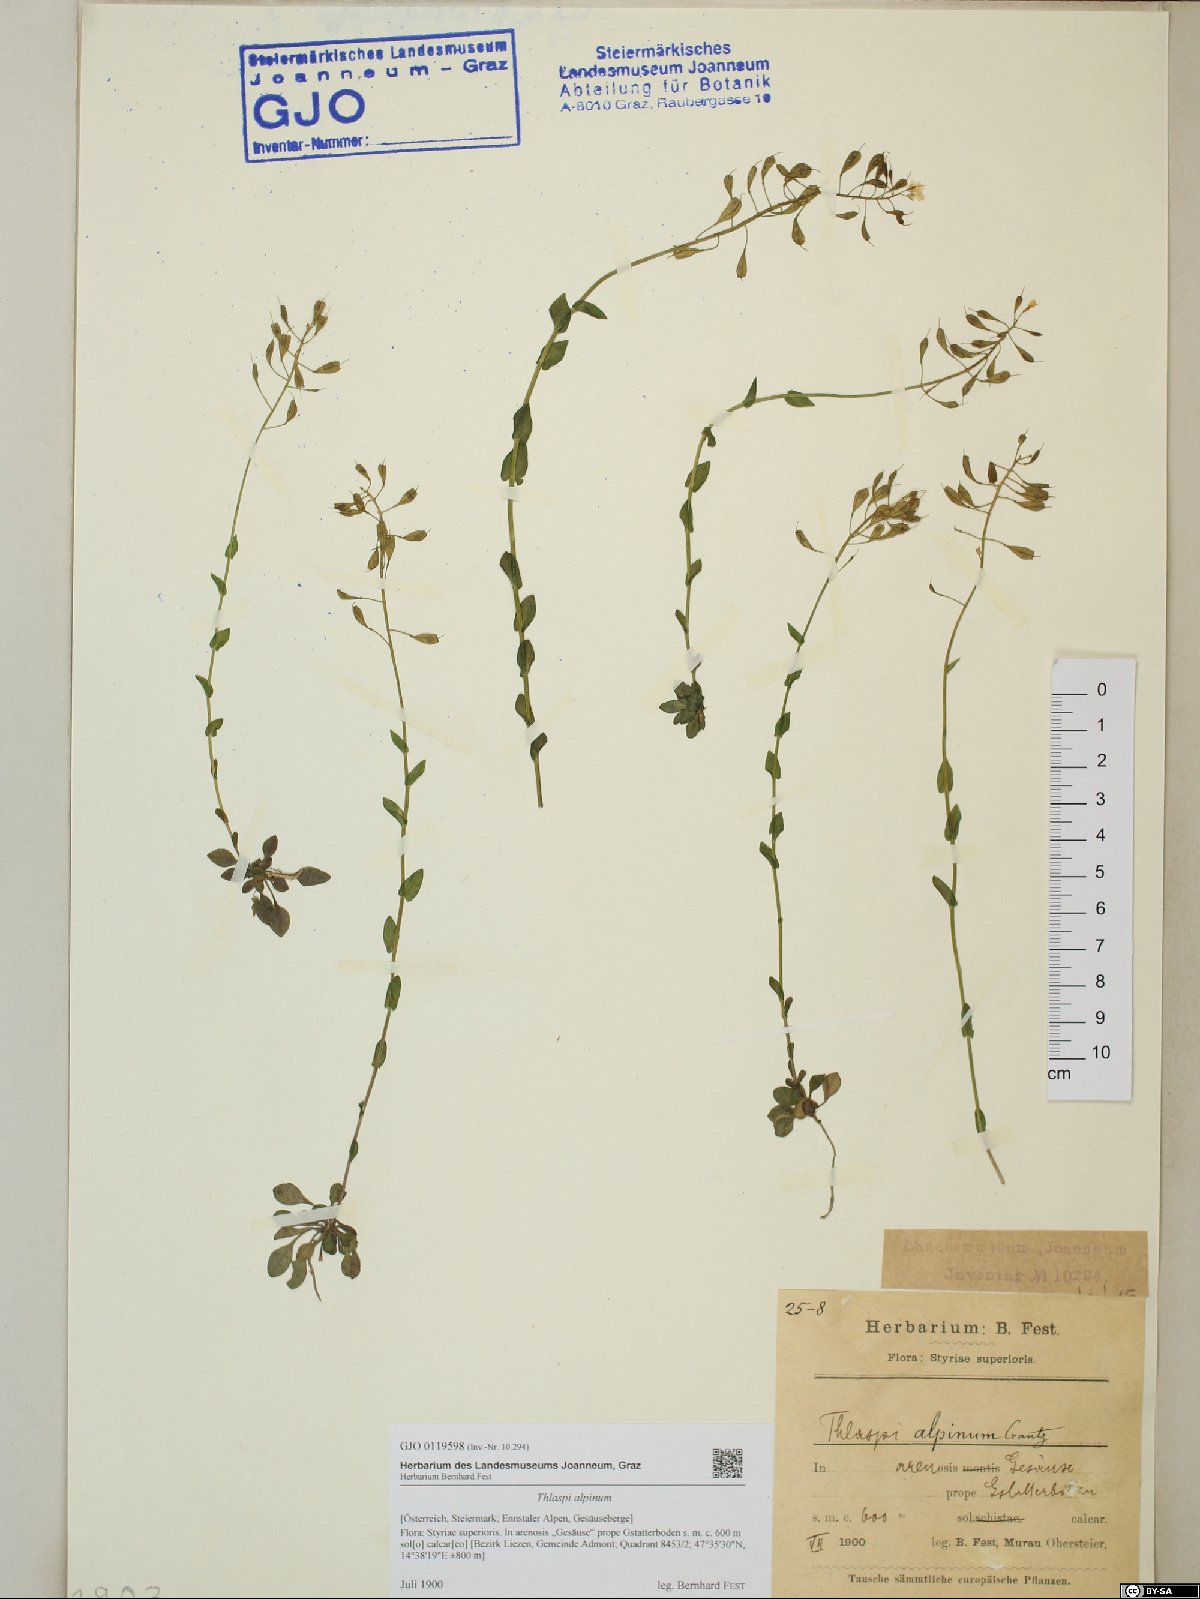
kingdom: Plantae
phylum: Tracheophyta
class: Magnoliopsida
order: Brassicales
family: Brassicaceae
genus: Noccaea
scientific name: Noccaea alpestris
